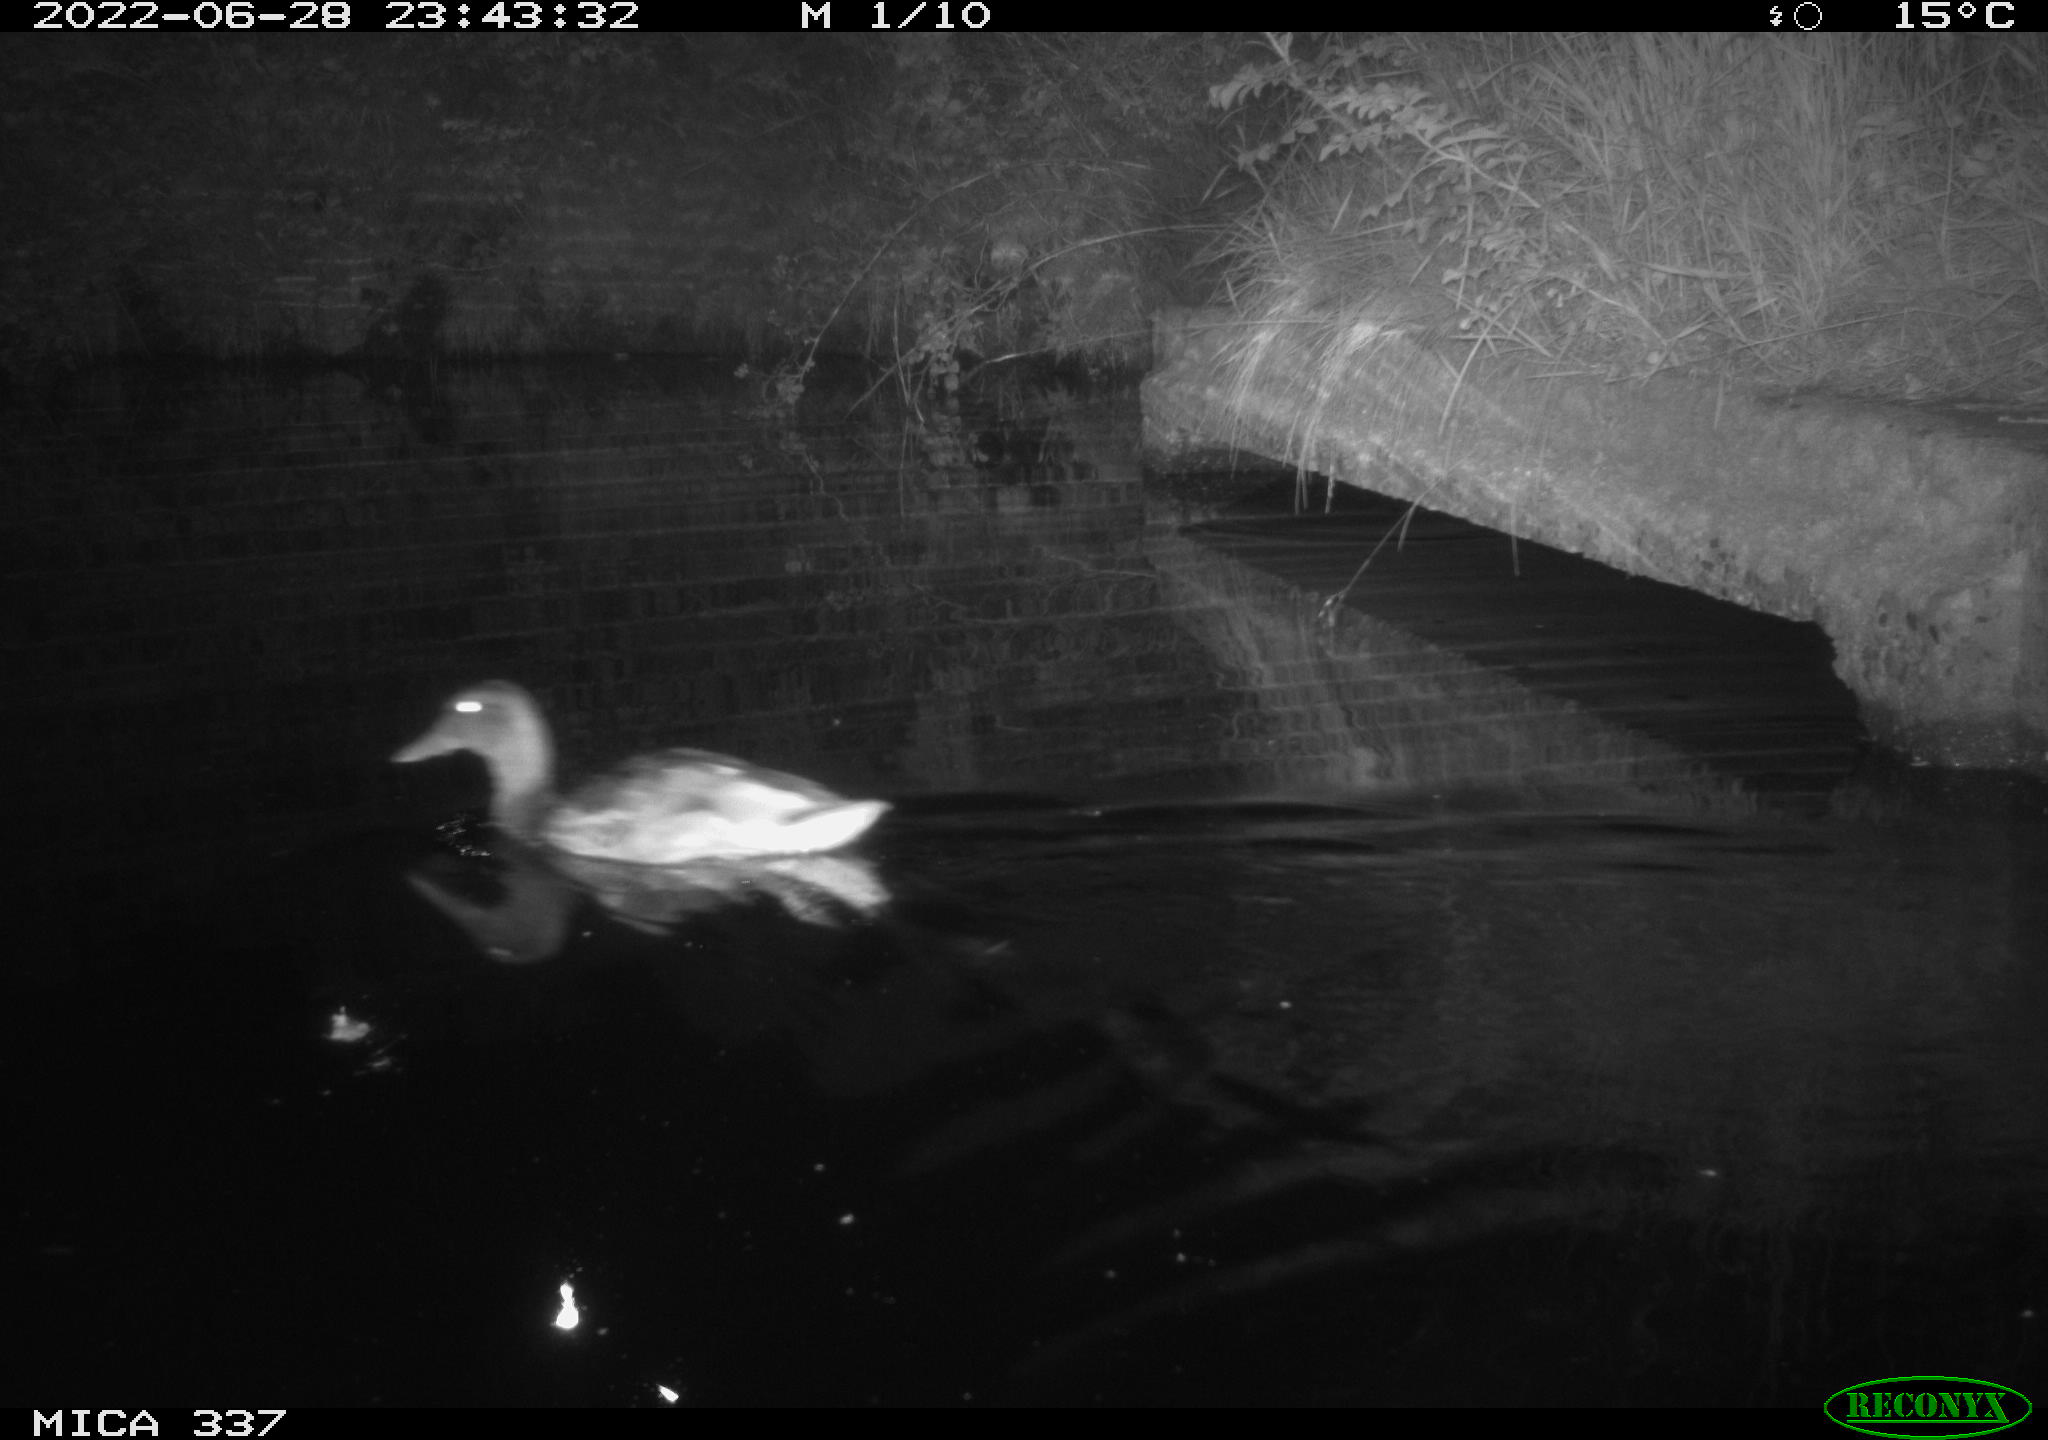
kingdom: Animalia
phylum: Chordata
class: Aves
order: Anseriformes
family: Anatidae
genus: Anas
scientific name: Anas platyrhynchos
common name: Mallard
